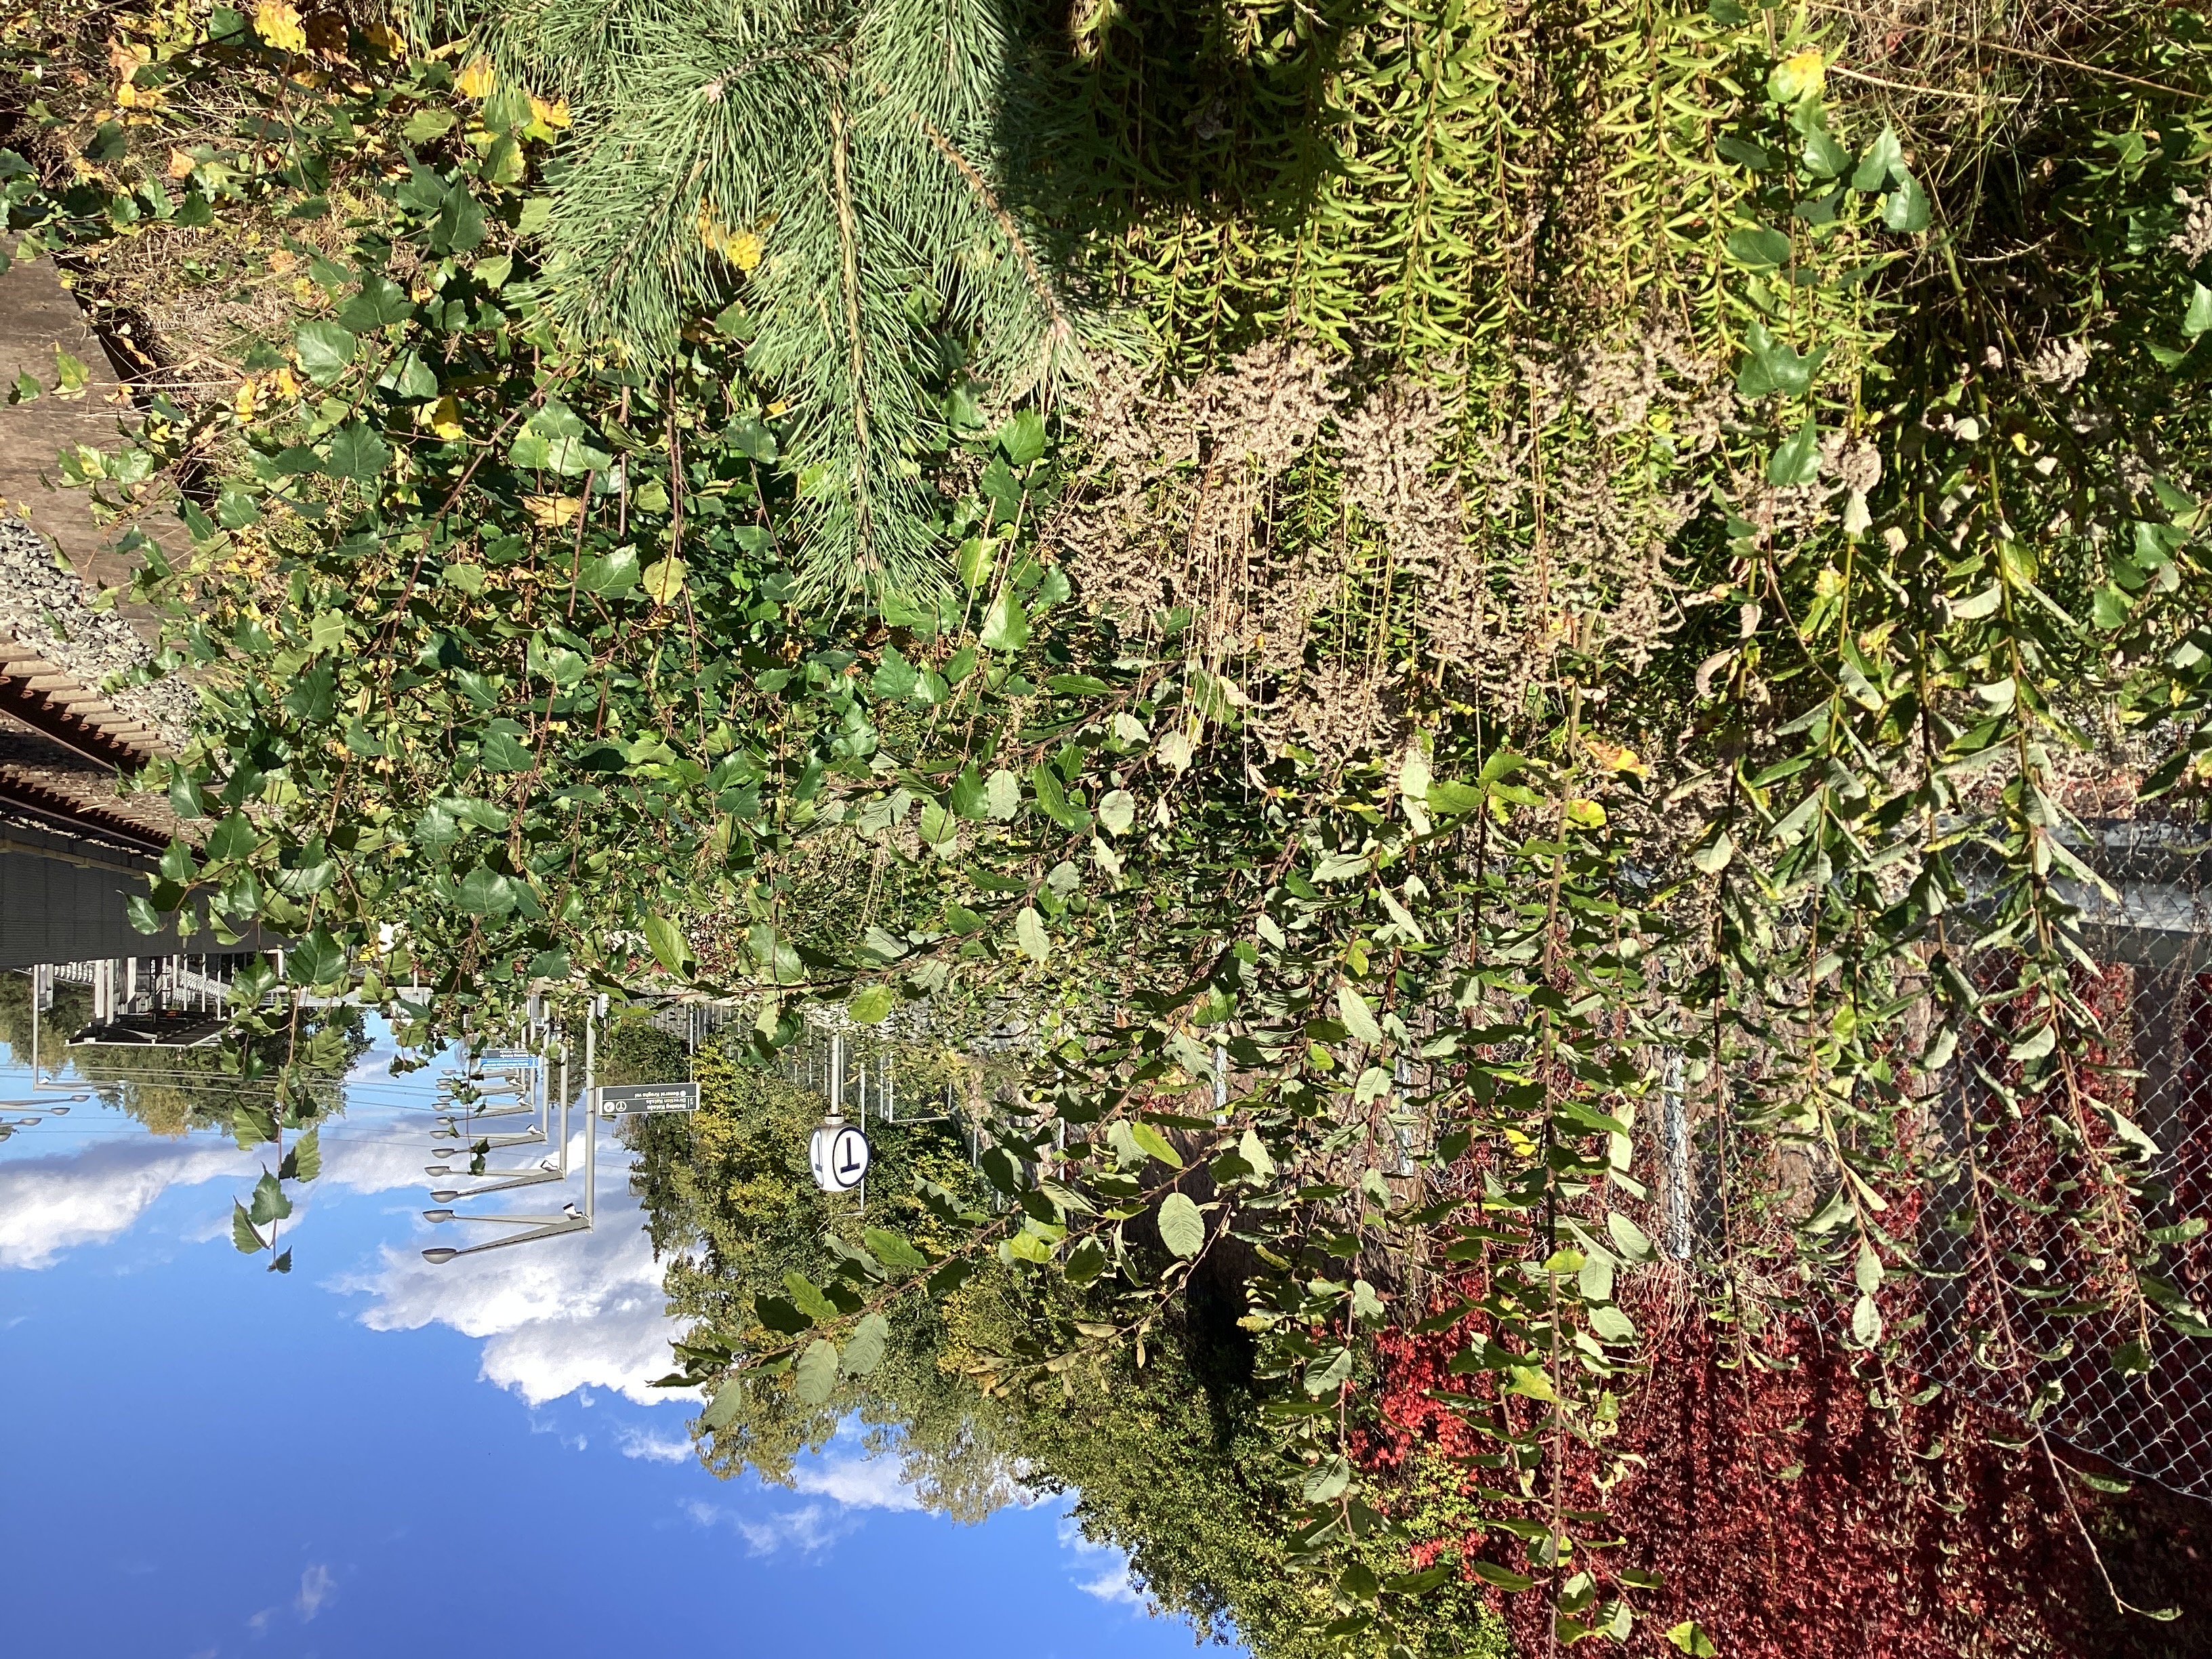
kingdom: Plantae
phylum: Tracheophyta
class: Magnoliopsida
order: Asterales
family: Asteraceae
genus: Solidago
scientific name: Solidago canadensis
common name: kanadagullris
